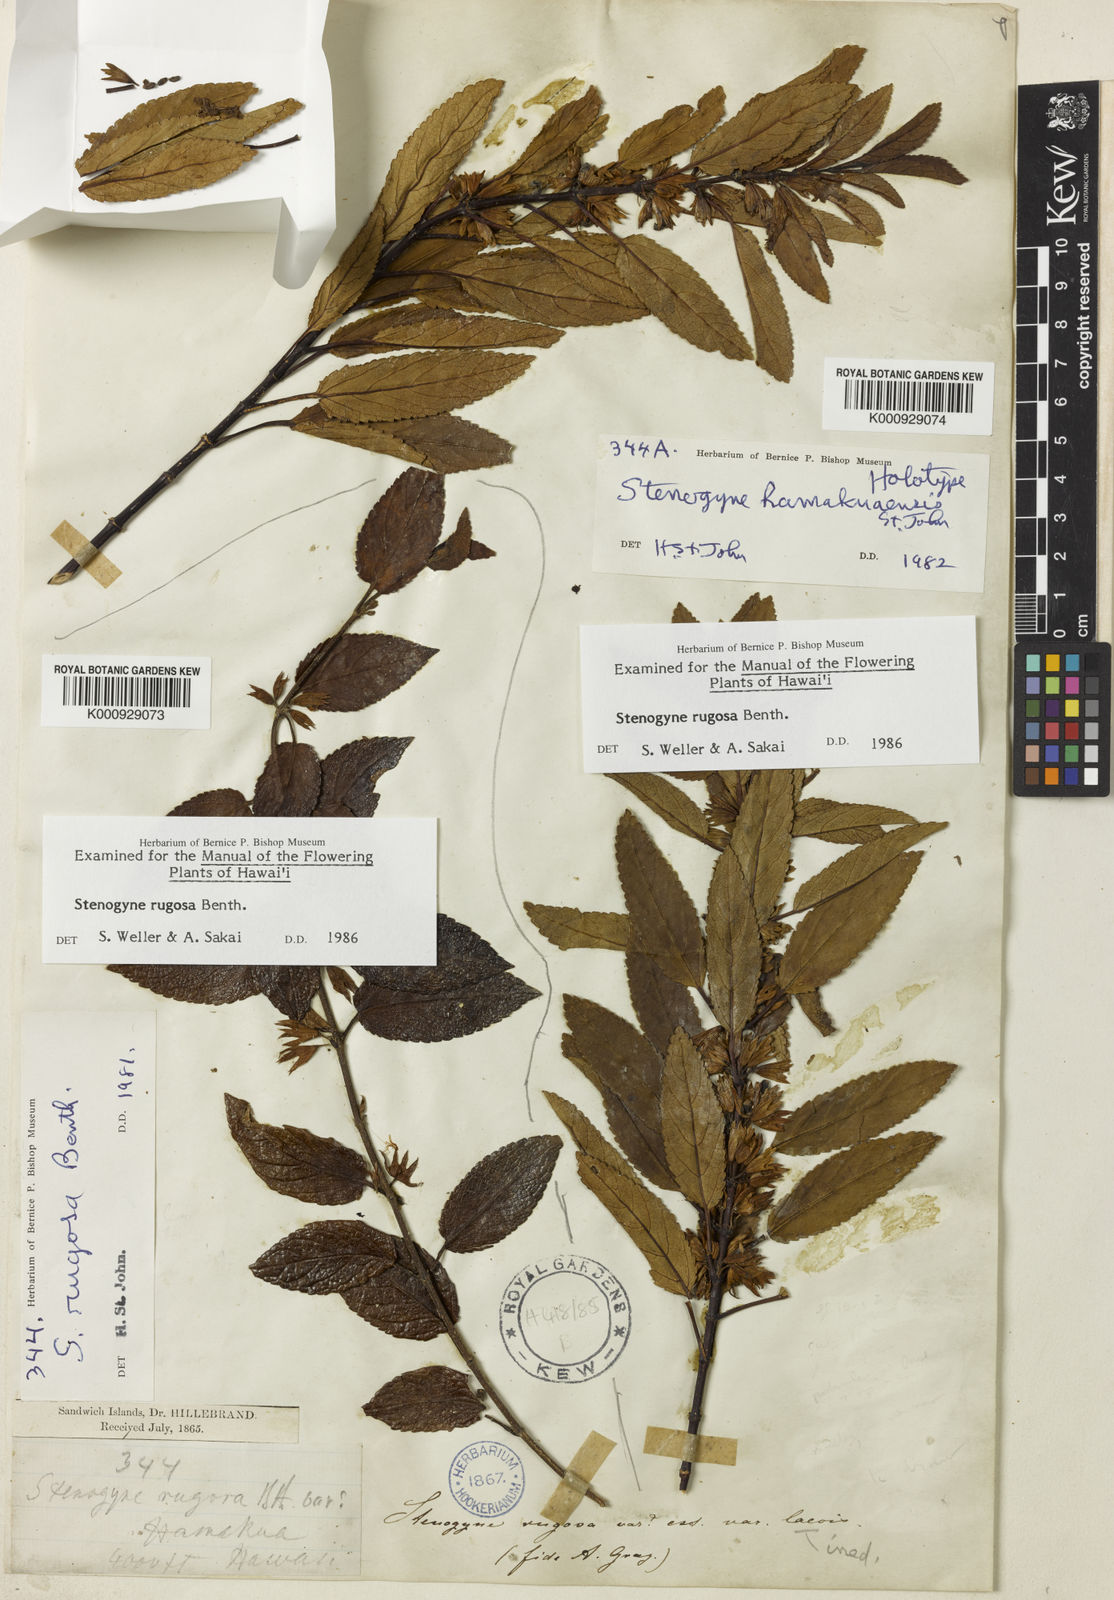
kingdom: Plantae
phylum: Tracheophyta
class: Magnoliopsida
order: Lamiales
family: Lamiaceae
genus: Stenogyne
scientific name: Stenogyne rugosa
